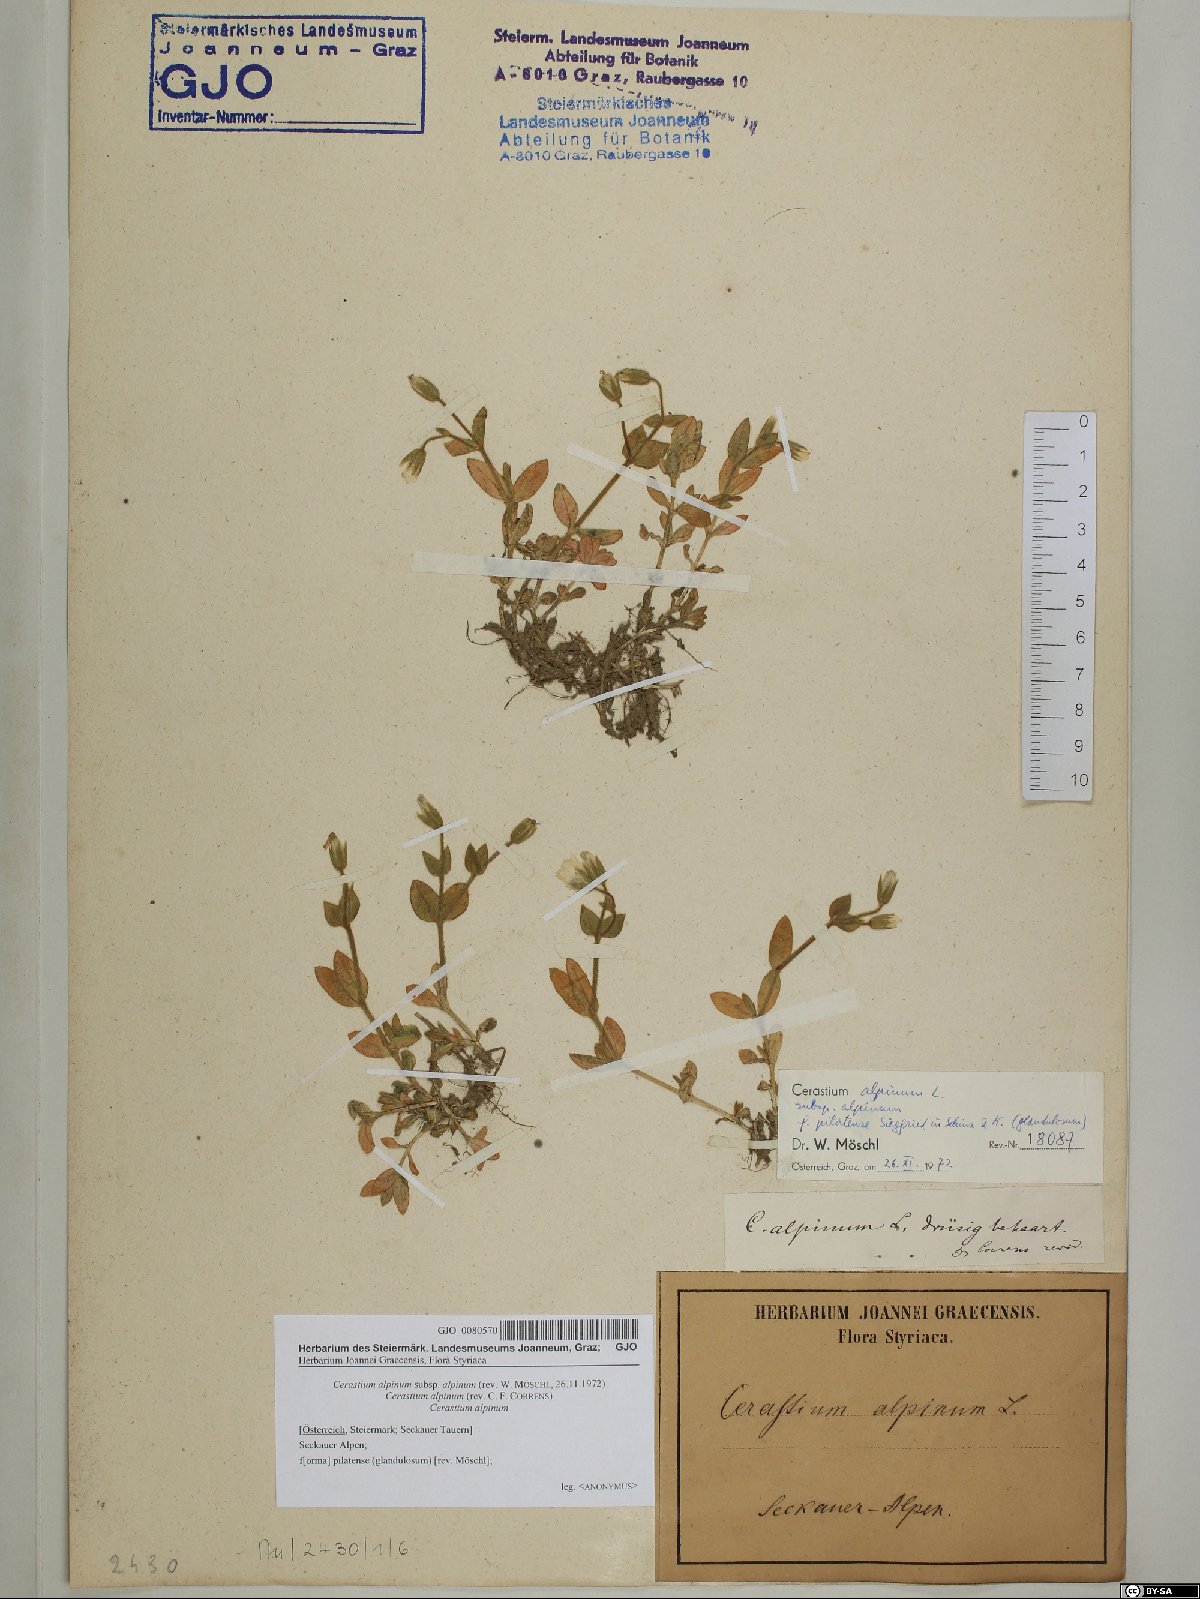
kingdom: Plantae
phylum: Tracheophyta
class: Magnoliopsida
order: Caryophyllales
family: Caryophyllaceae
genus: Cerastium
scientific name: Cerastium alpinum
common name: Alpine mouse-ear
